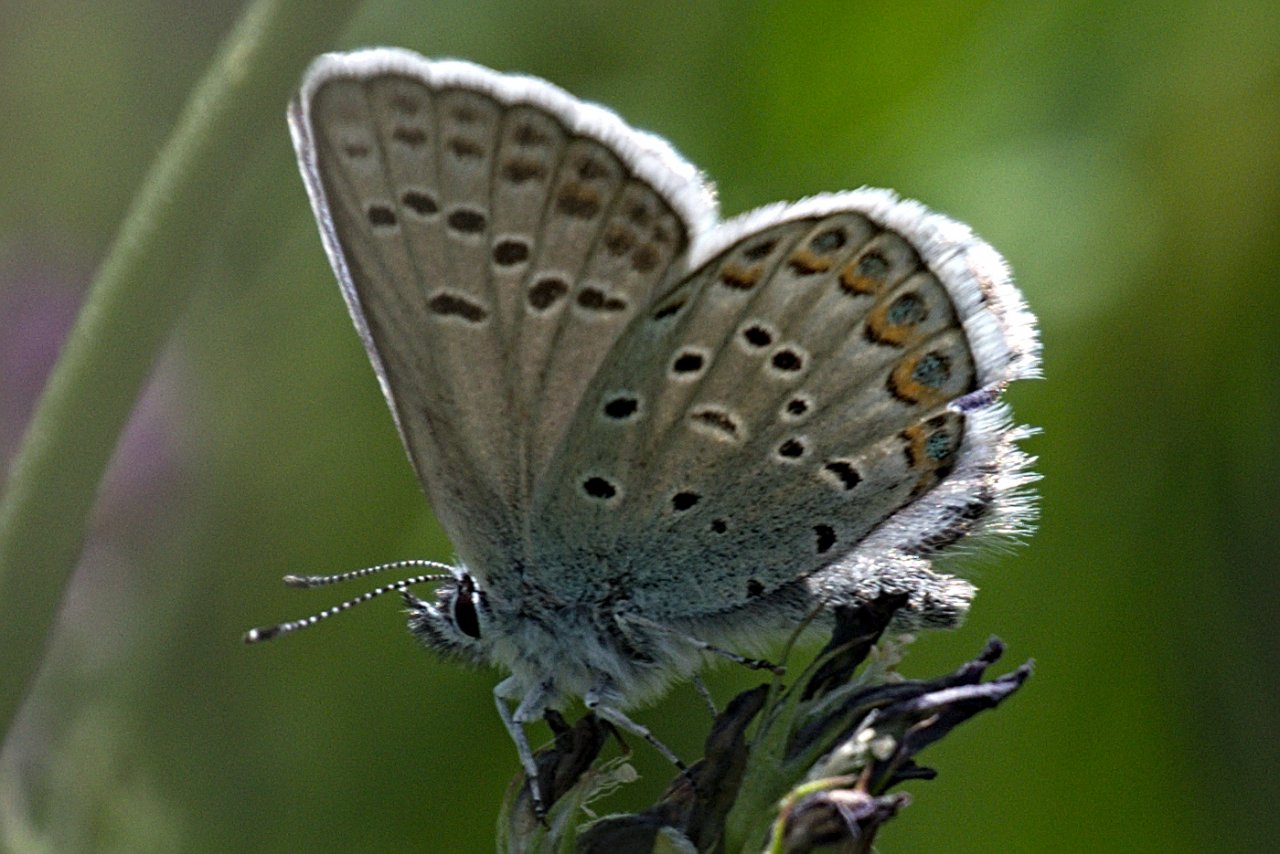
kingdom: Animalia
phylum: Arthropoda
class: Insecta
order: Lepidoptera
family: Lycaenidae
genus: Lycaeides
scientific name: Lycaeides idas
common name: Northern Blue
